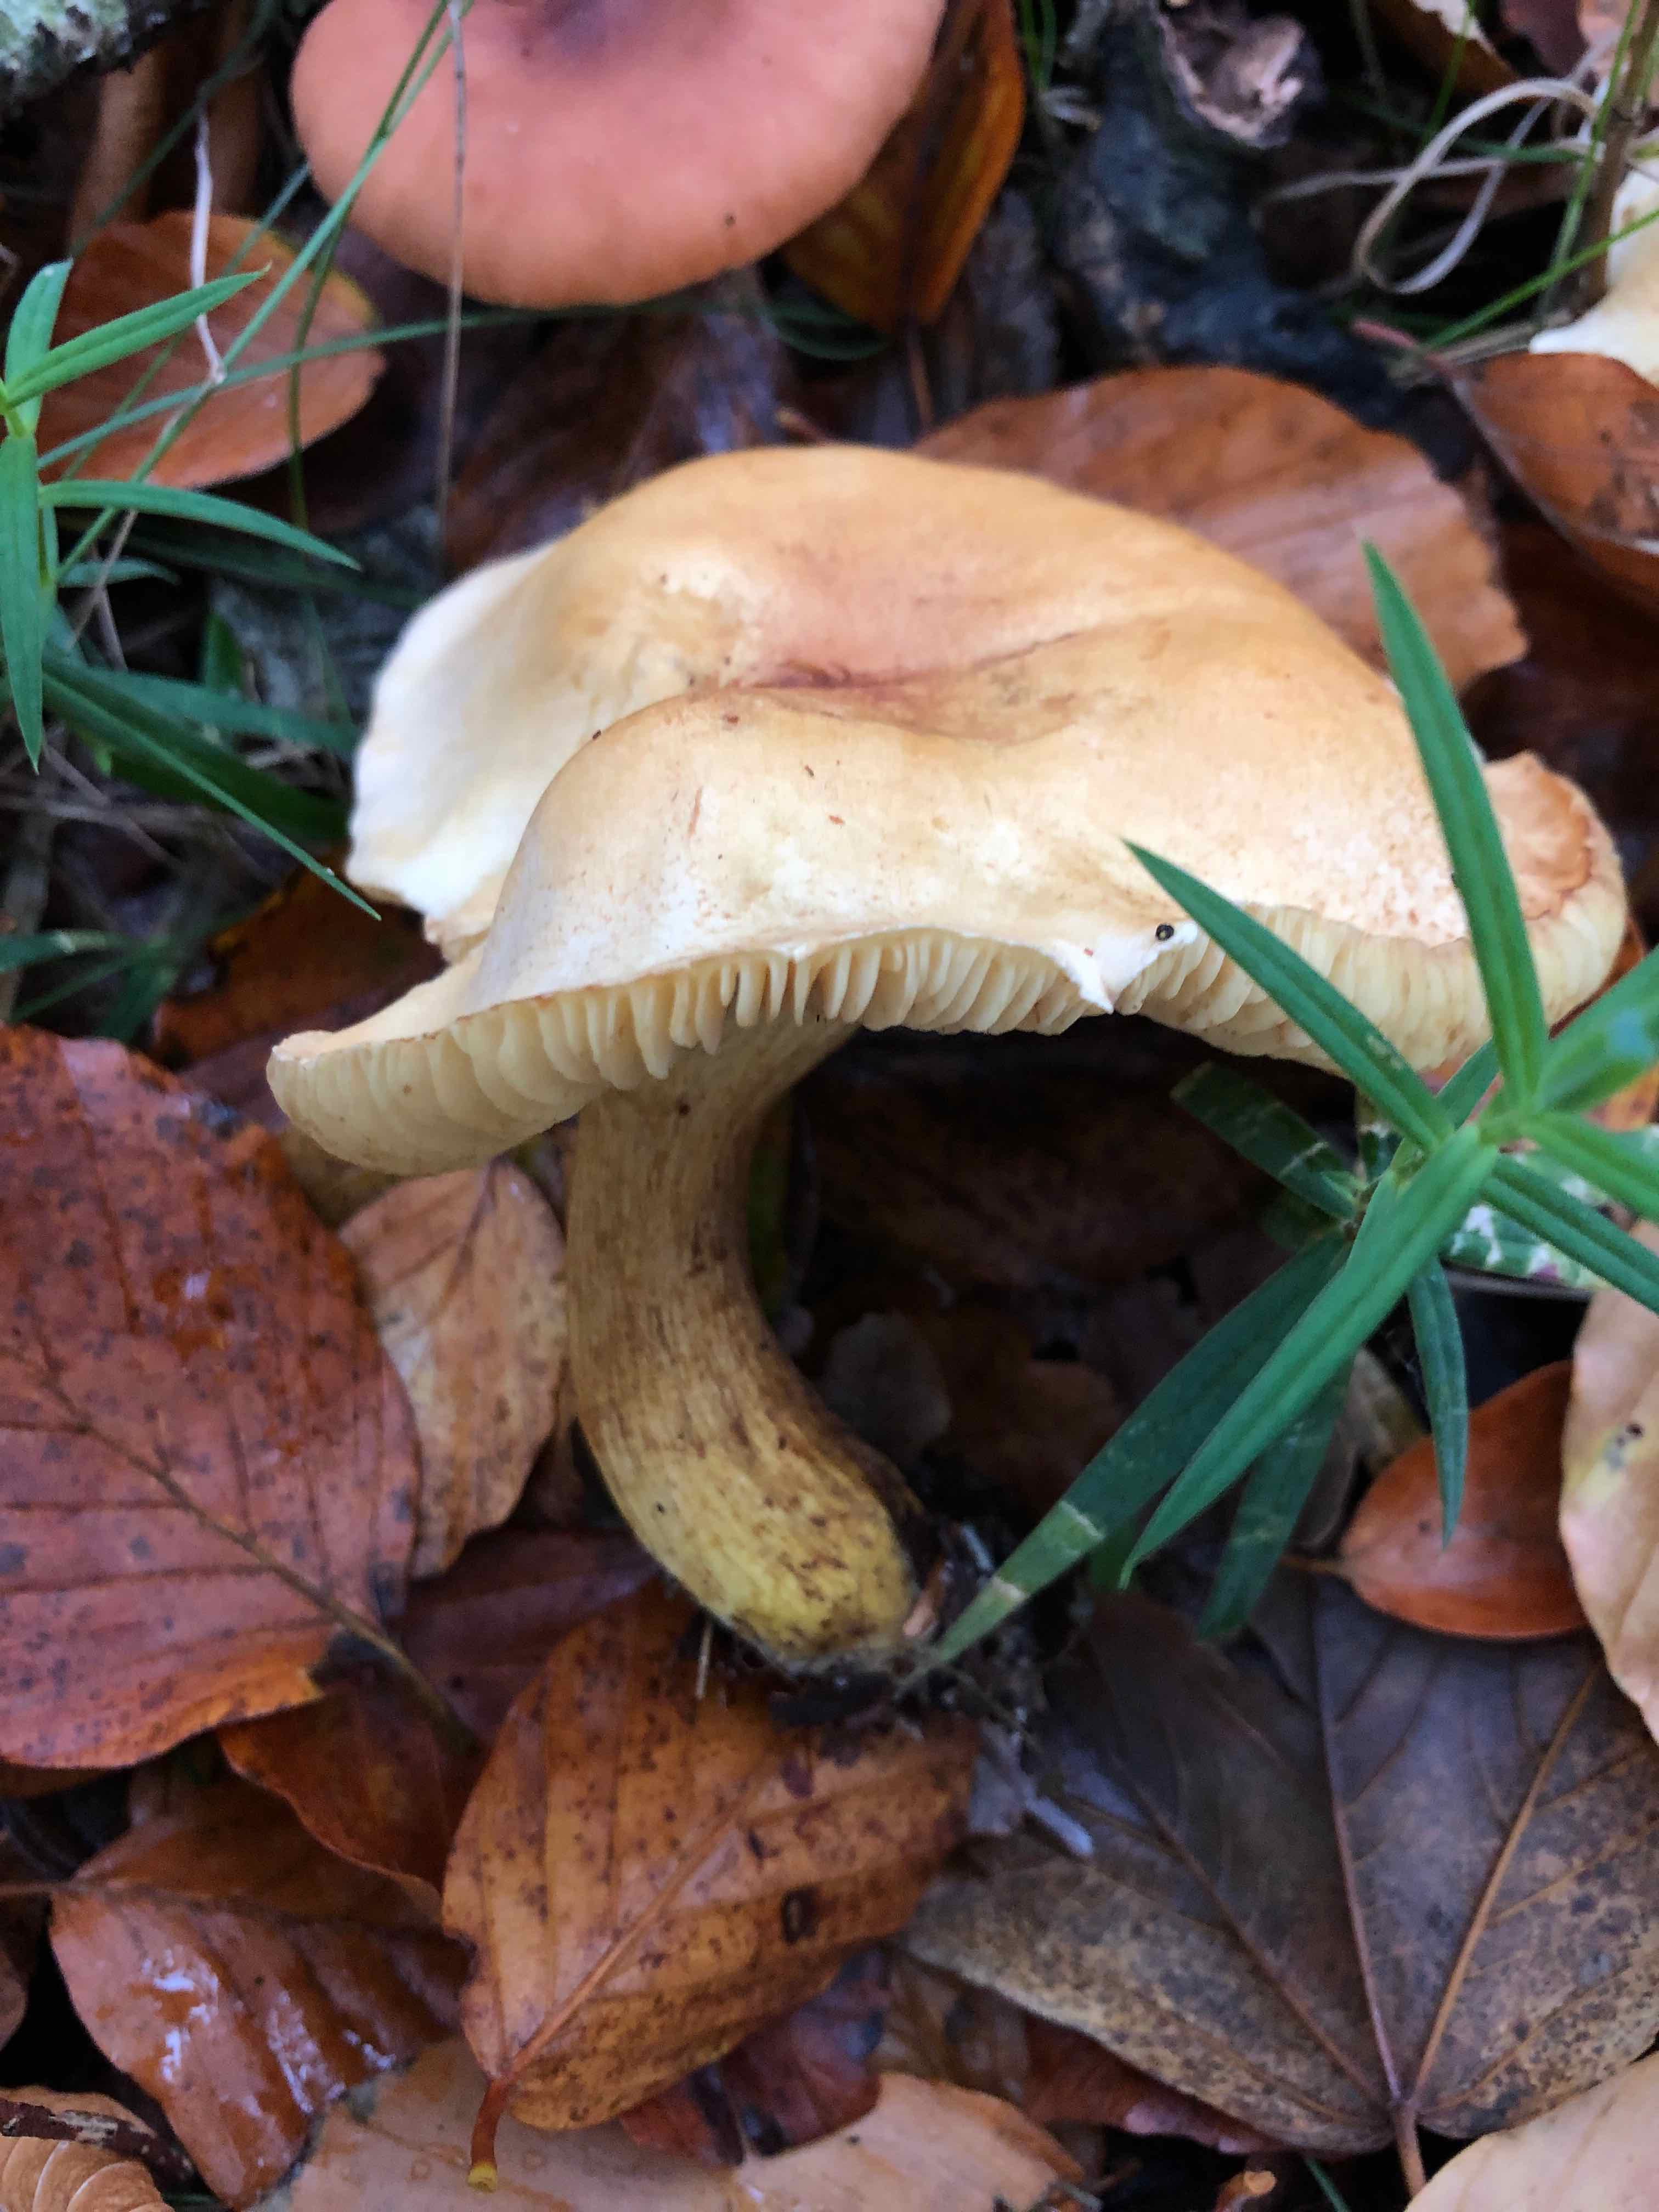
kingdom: Fungi
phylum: Basidiomycota
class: Agaricomycetes
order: Agaricales
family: Tricholomataceae
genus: Tricholoma
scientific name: Tricholoma sulphureum
